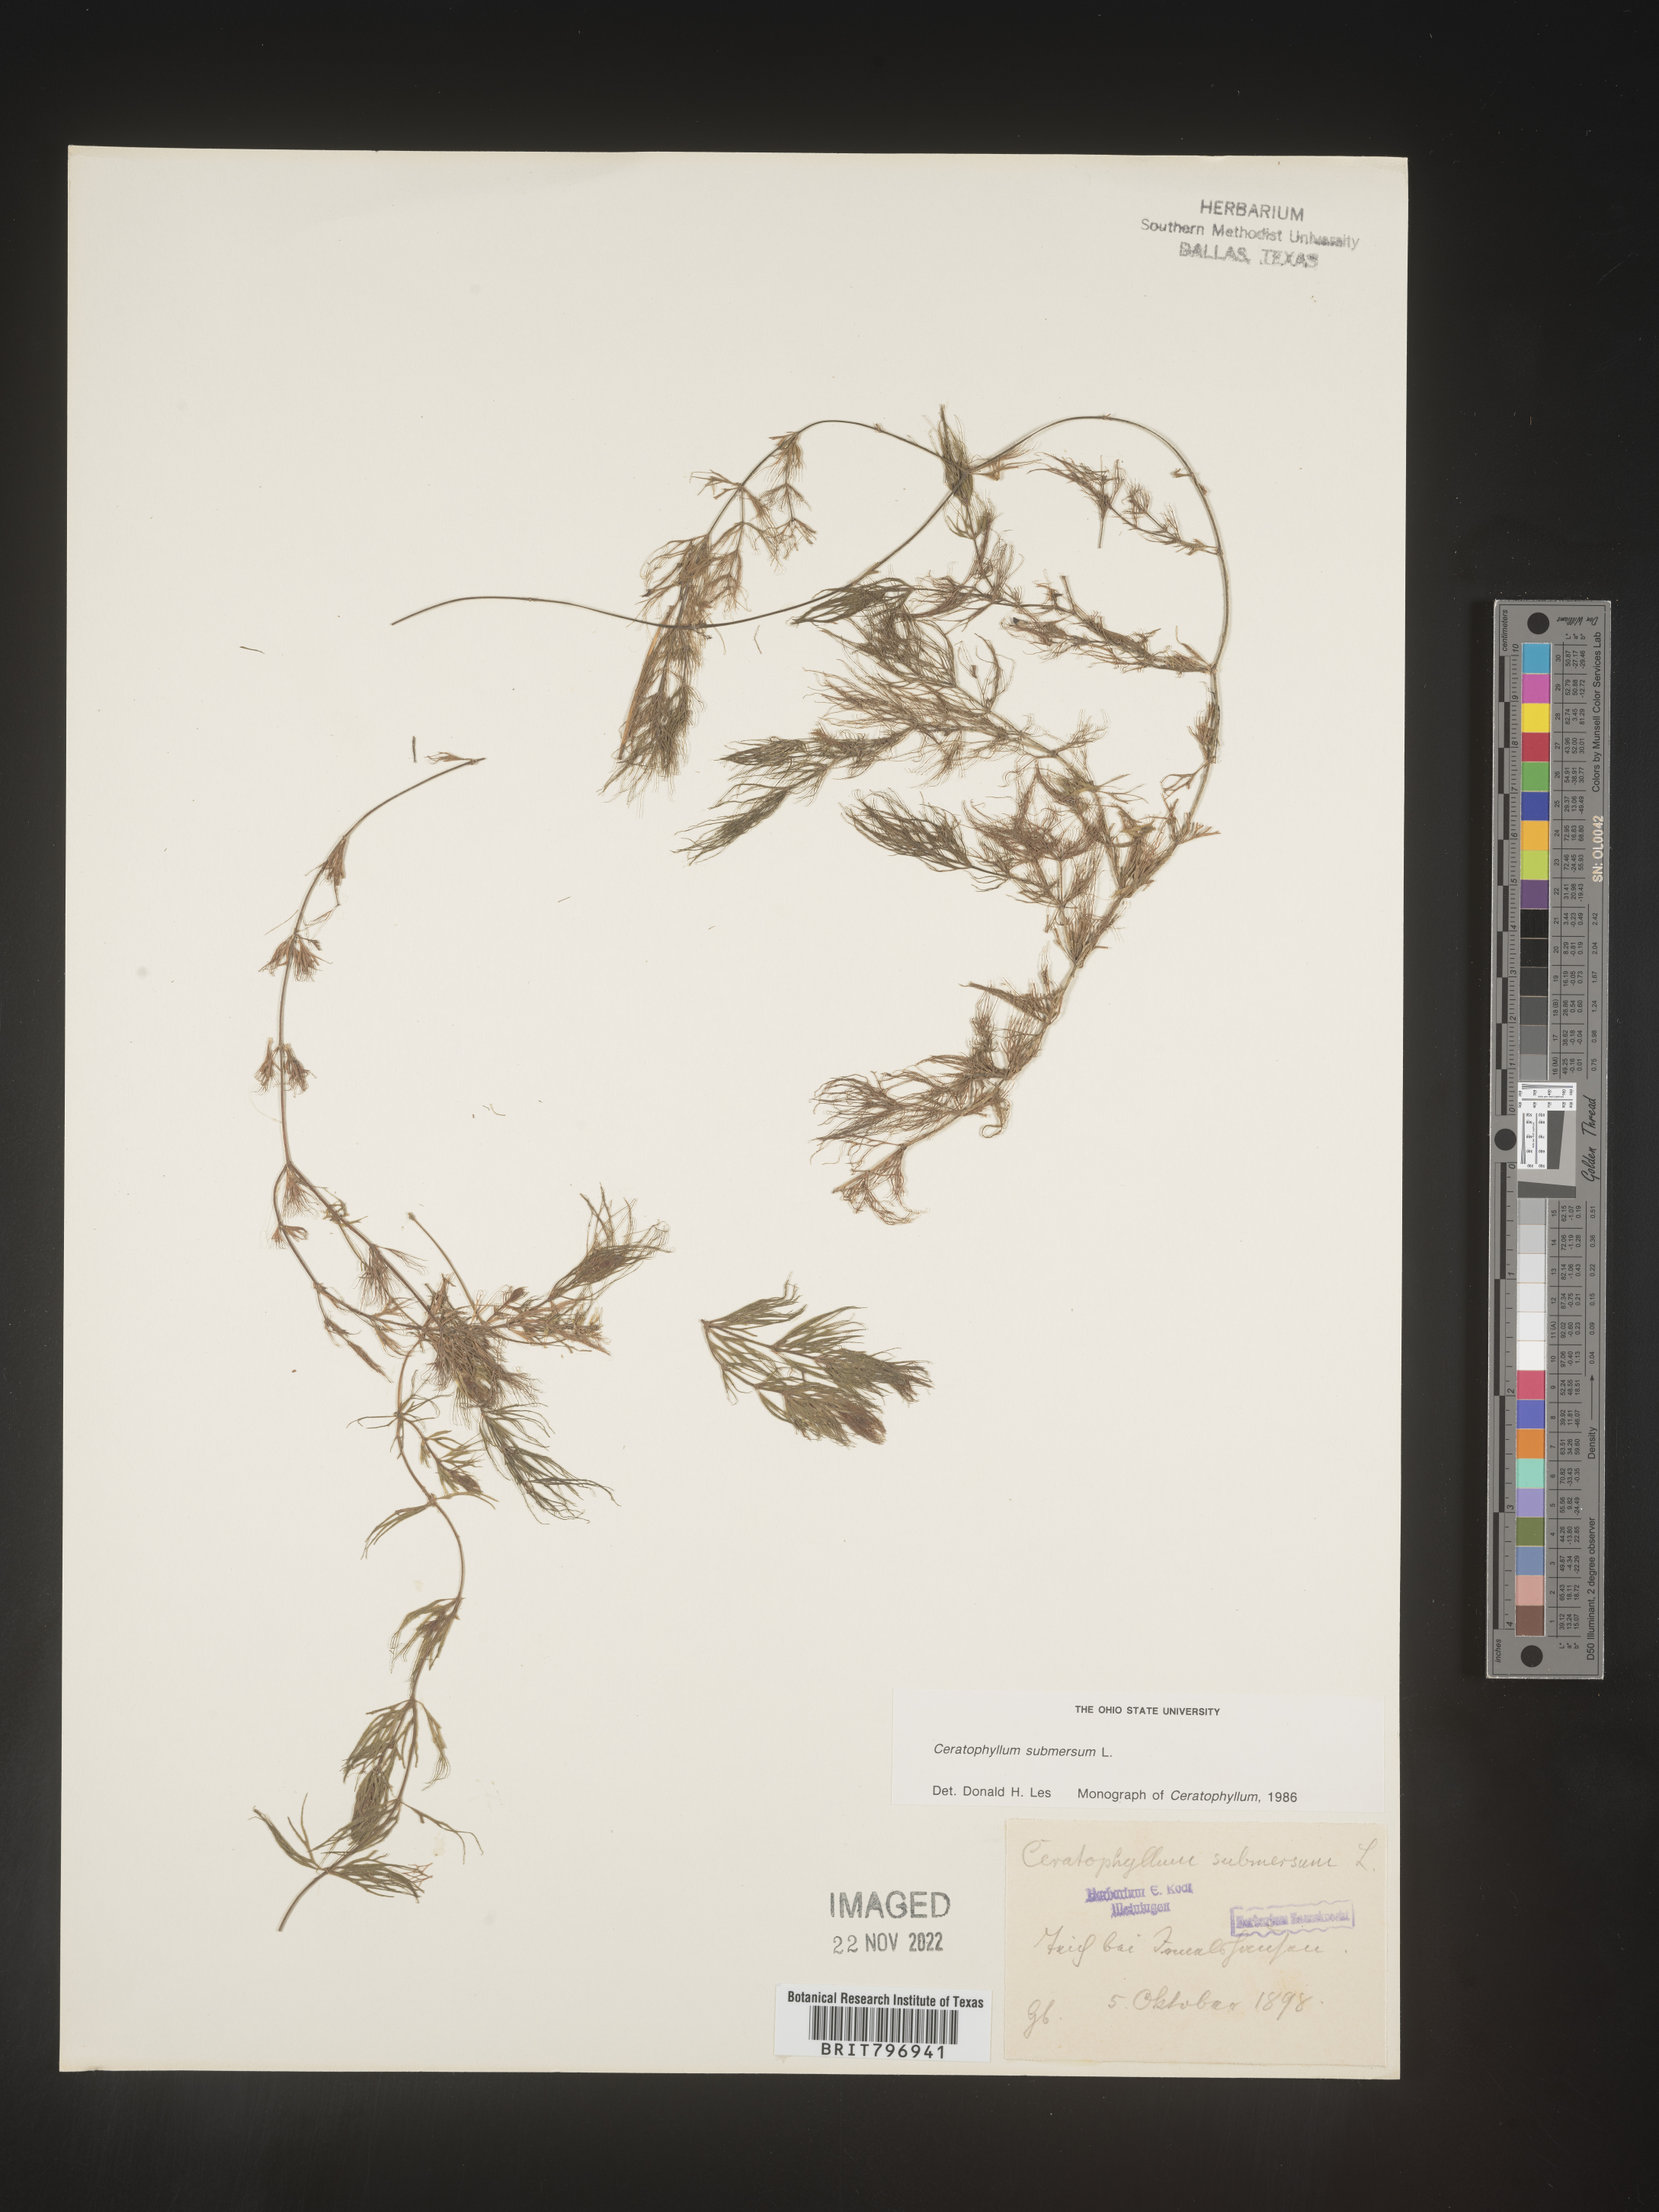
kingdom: Plantae
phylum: Tracheophyta
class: Magnoliopsida
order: Ceratophyllales
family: Ceratophyllaceae
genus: Ceratophyllum
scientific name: Ceratophyllum
